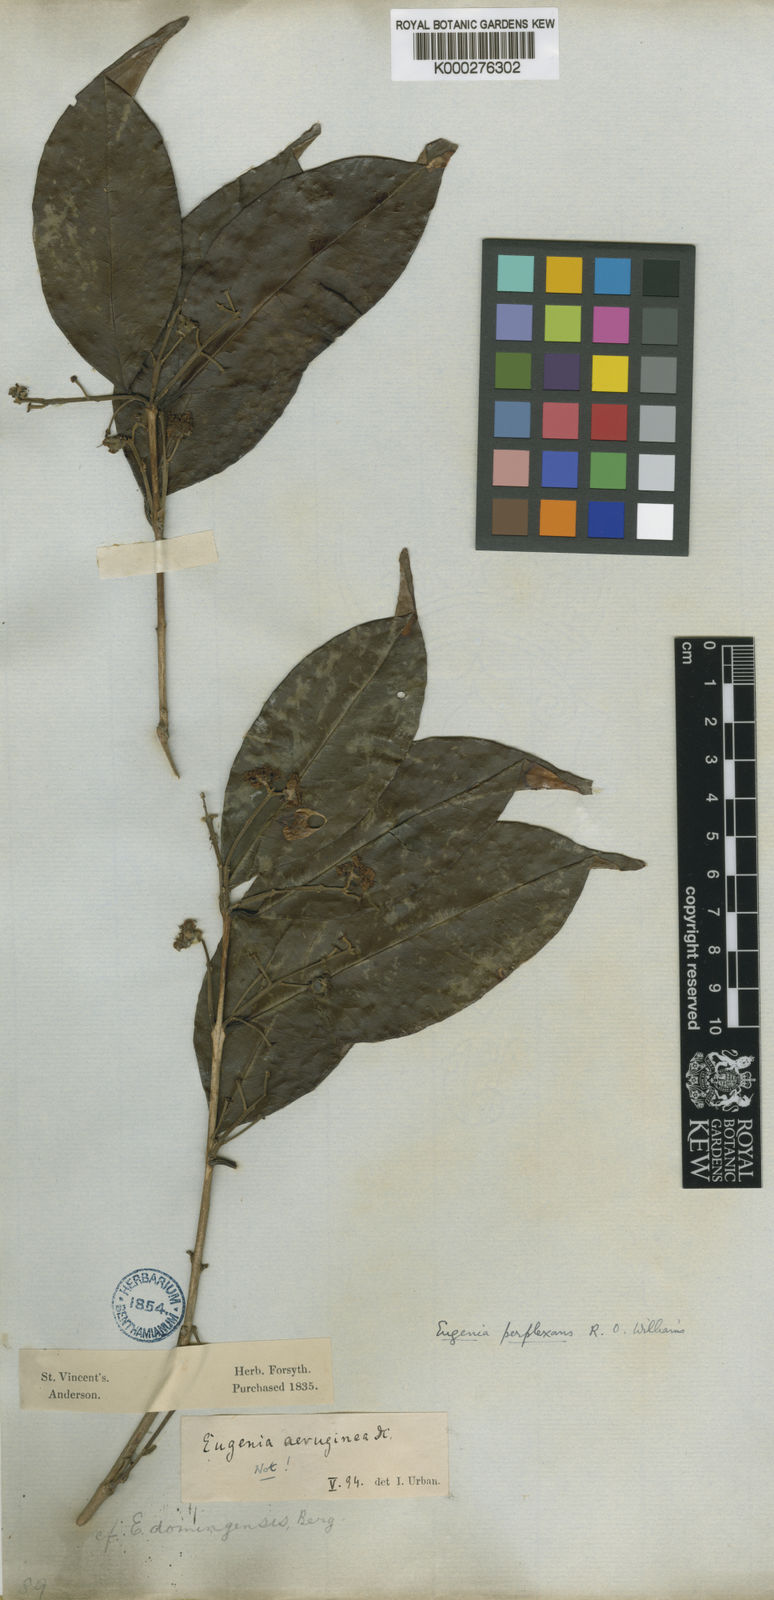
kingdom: Plantae
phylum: Tracheophyta
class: Magnoliopsida
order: Myrtales
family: Myrtaceae
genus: Eugenia
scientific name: Eugenia coffeifolia
